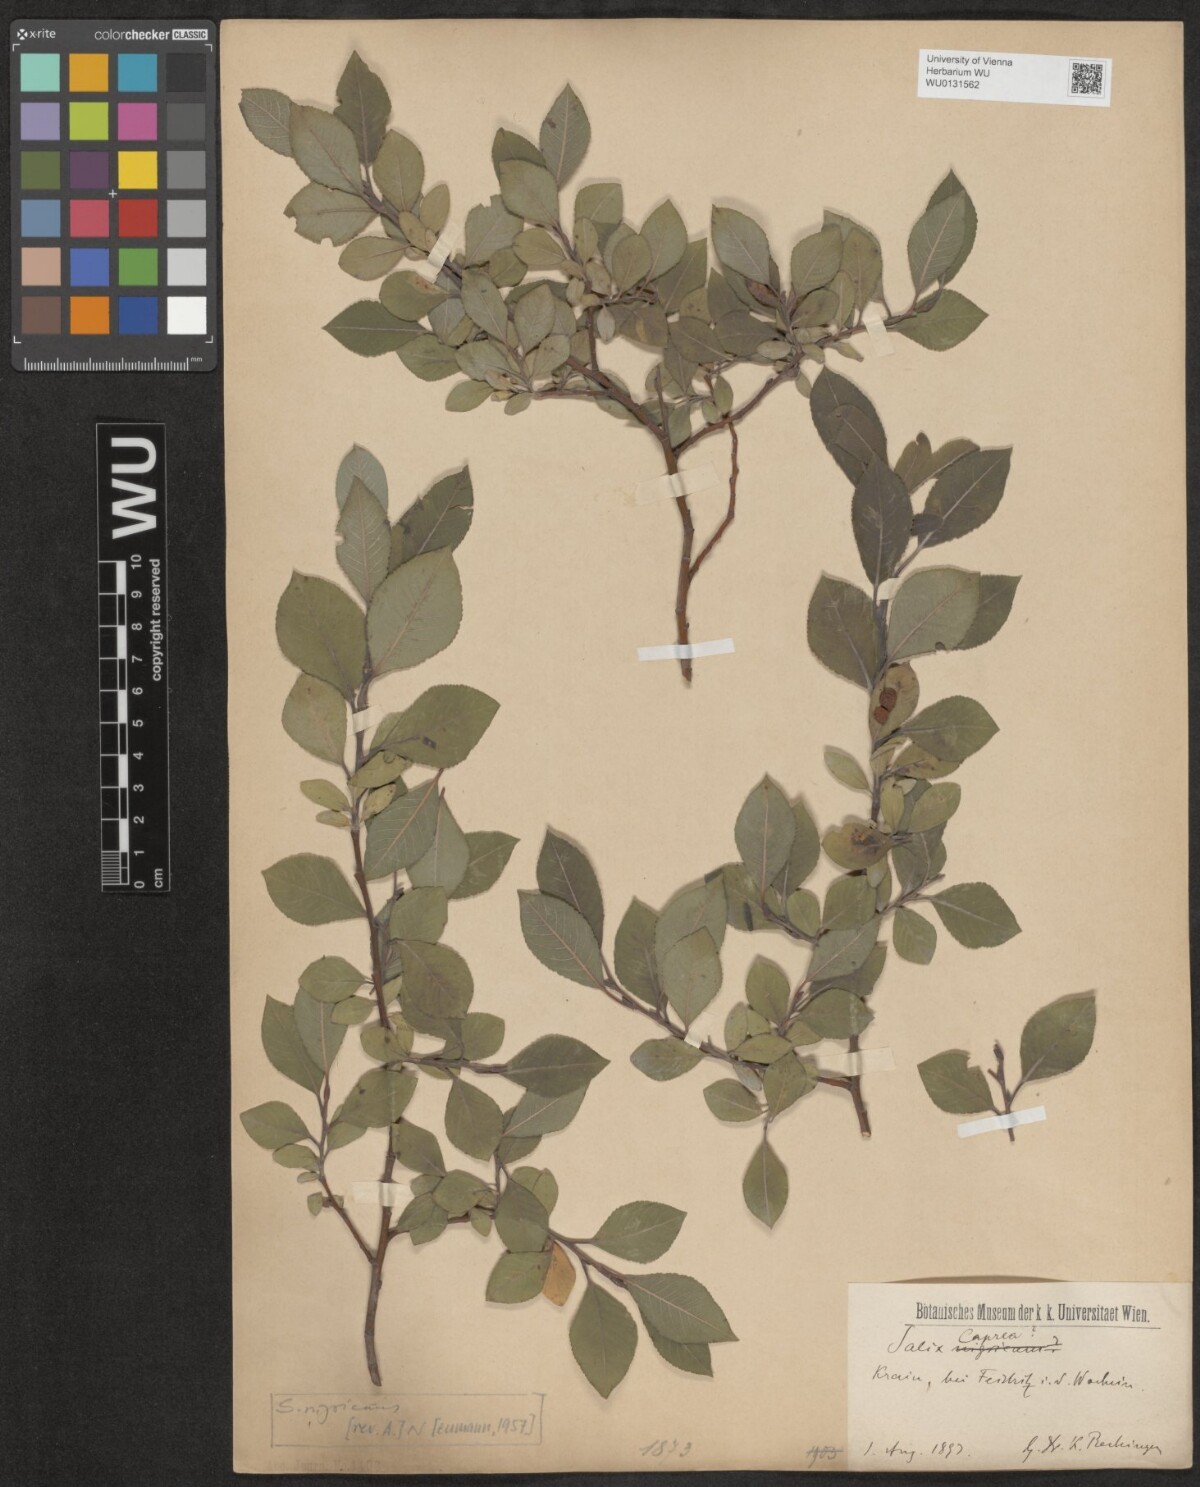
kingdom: Plantae
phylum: Tracheophyta
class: Magnoliopsida
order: Malpighiales
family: Salicaceae
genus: Salix
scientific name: Salix myrsinifolia
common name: Dark-leaved willow
